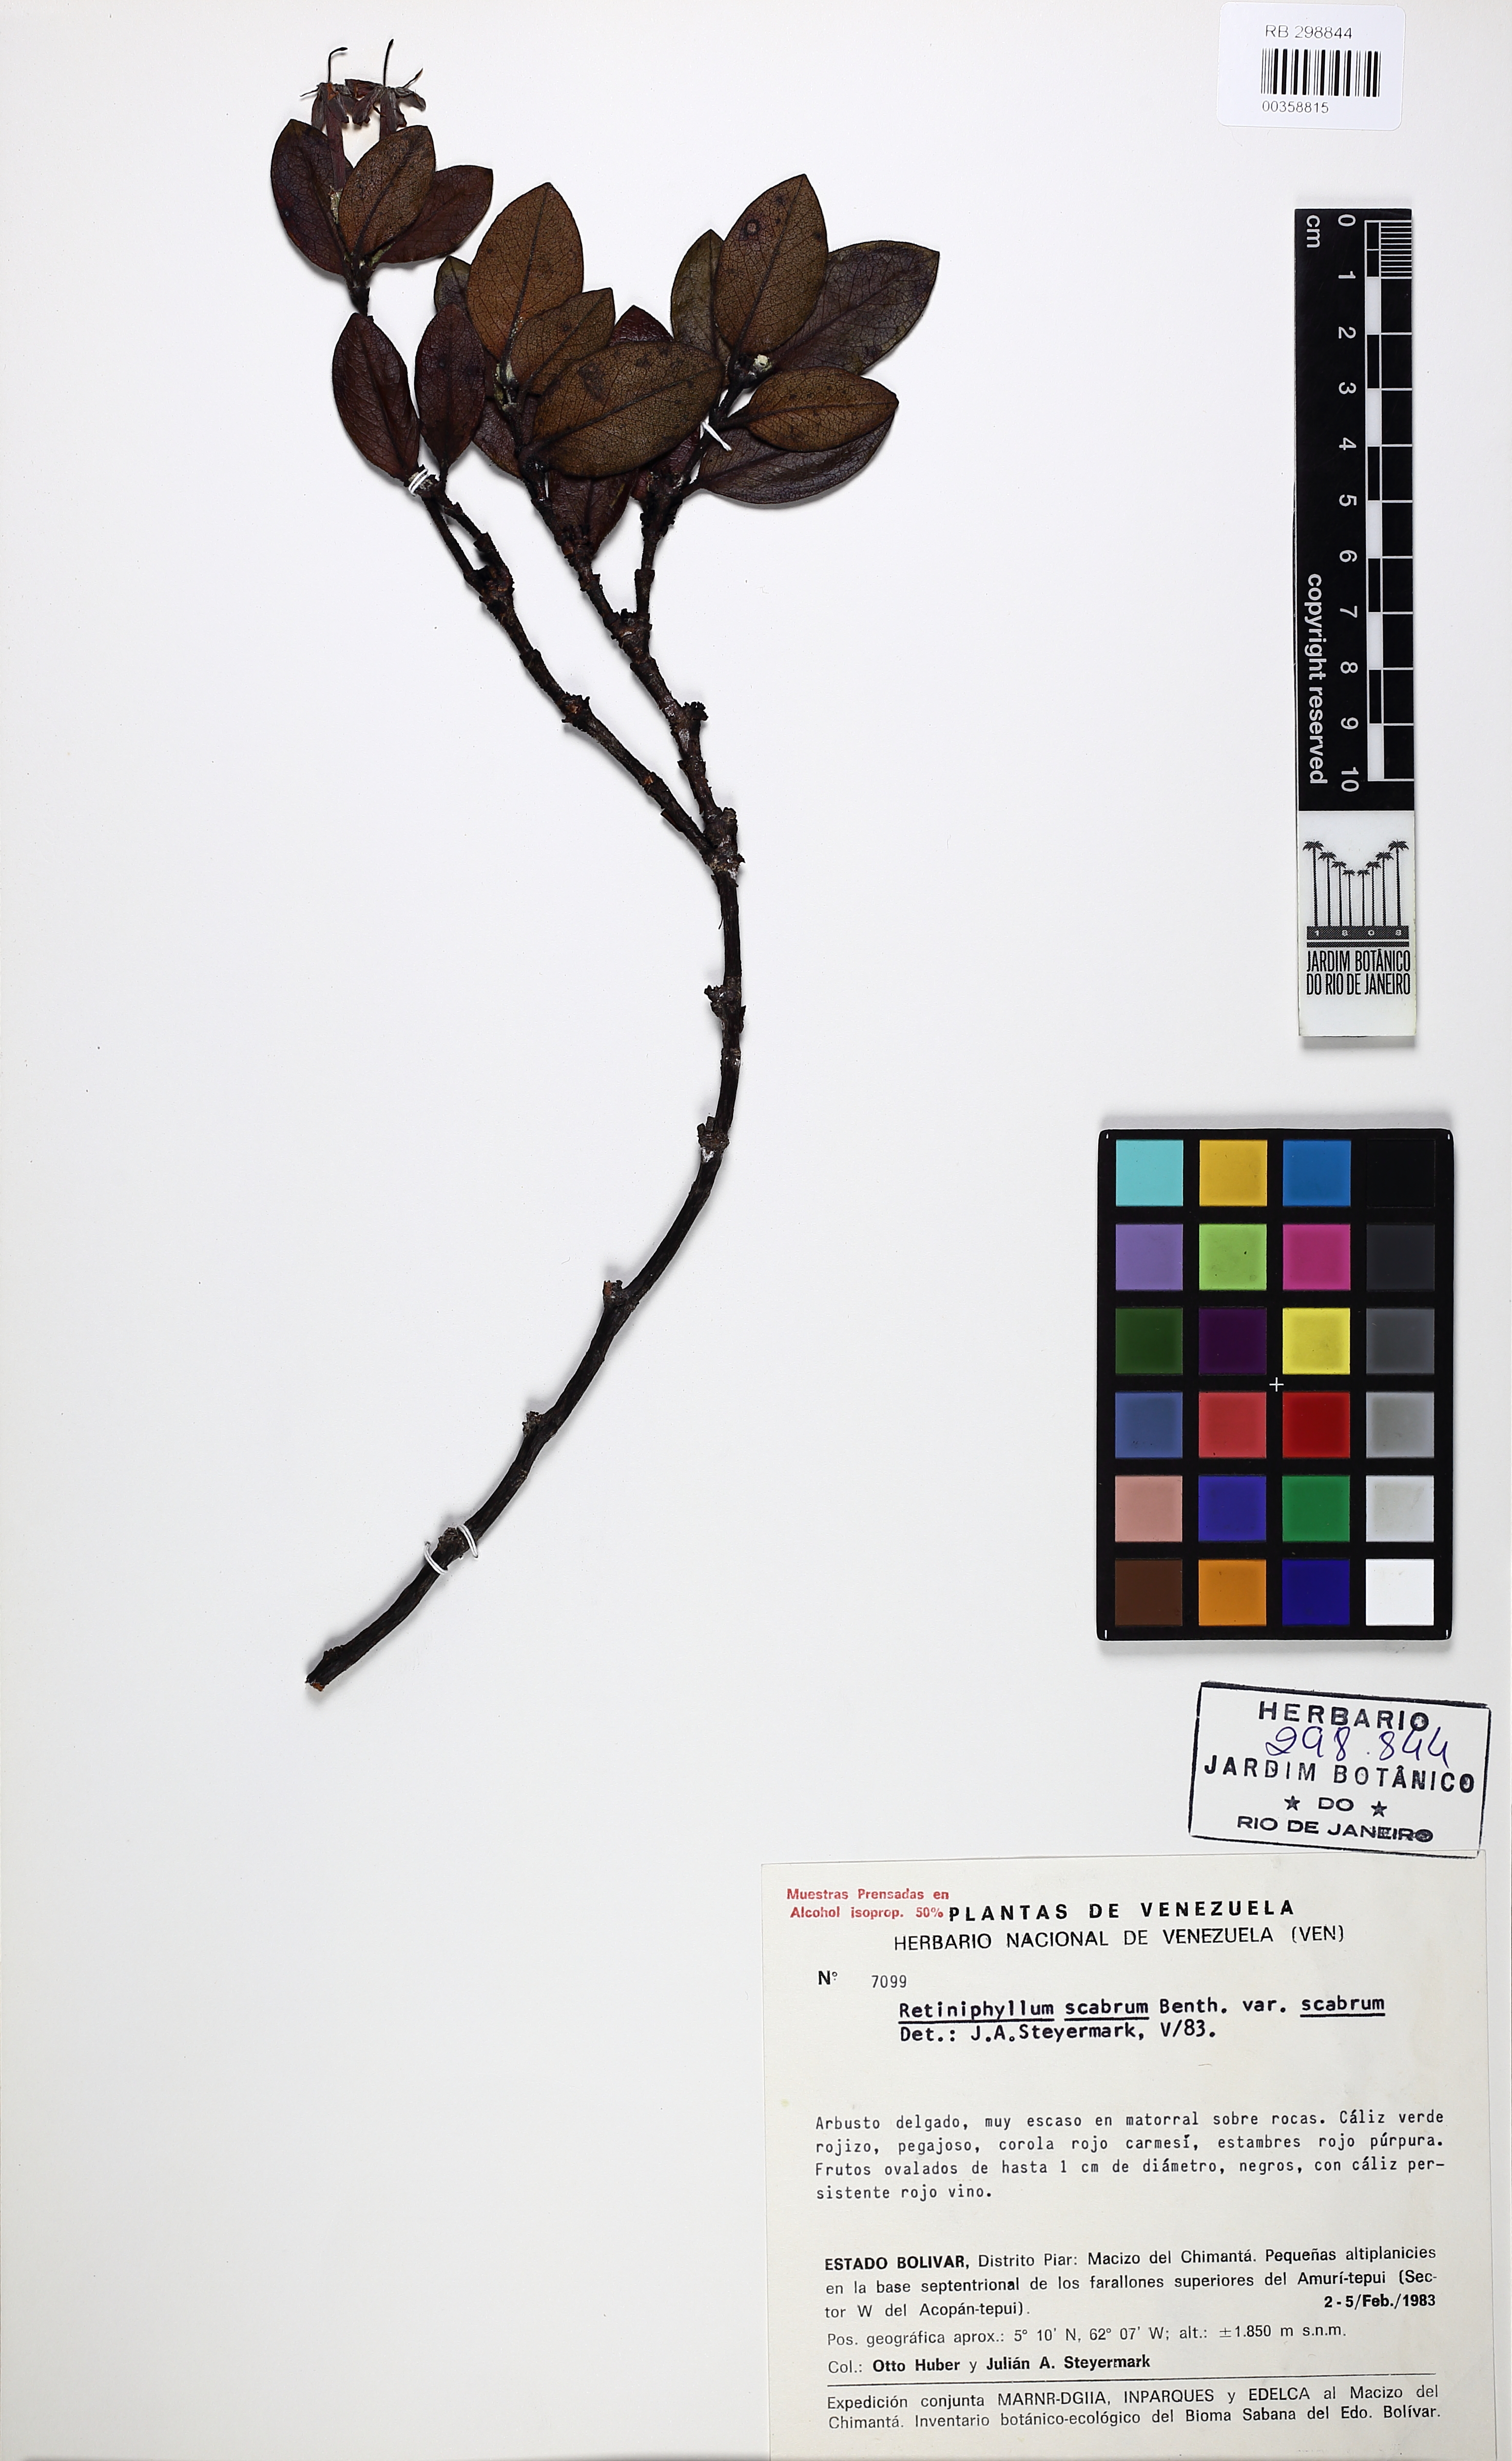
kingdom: Plantae
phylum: Tracheophyta
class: Magnoliopsida
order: Gentianales
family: Rubiaceae
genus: Retiniphyllum
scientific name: Retiniphyllum scabrum
